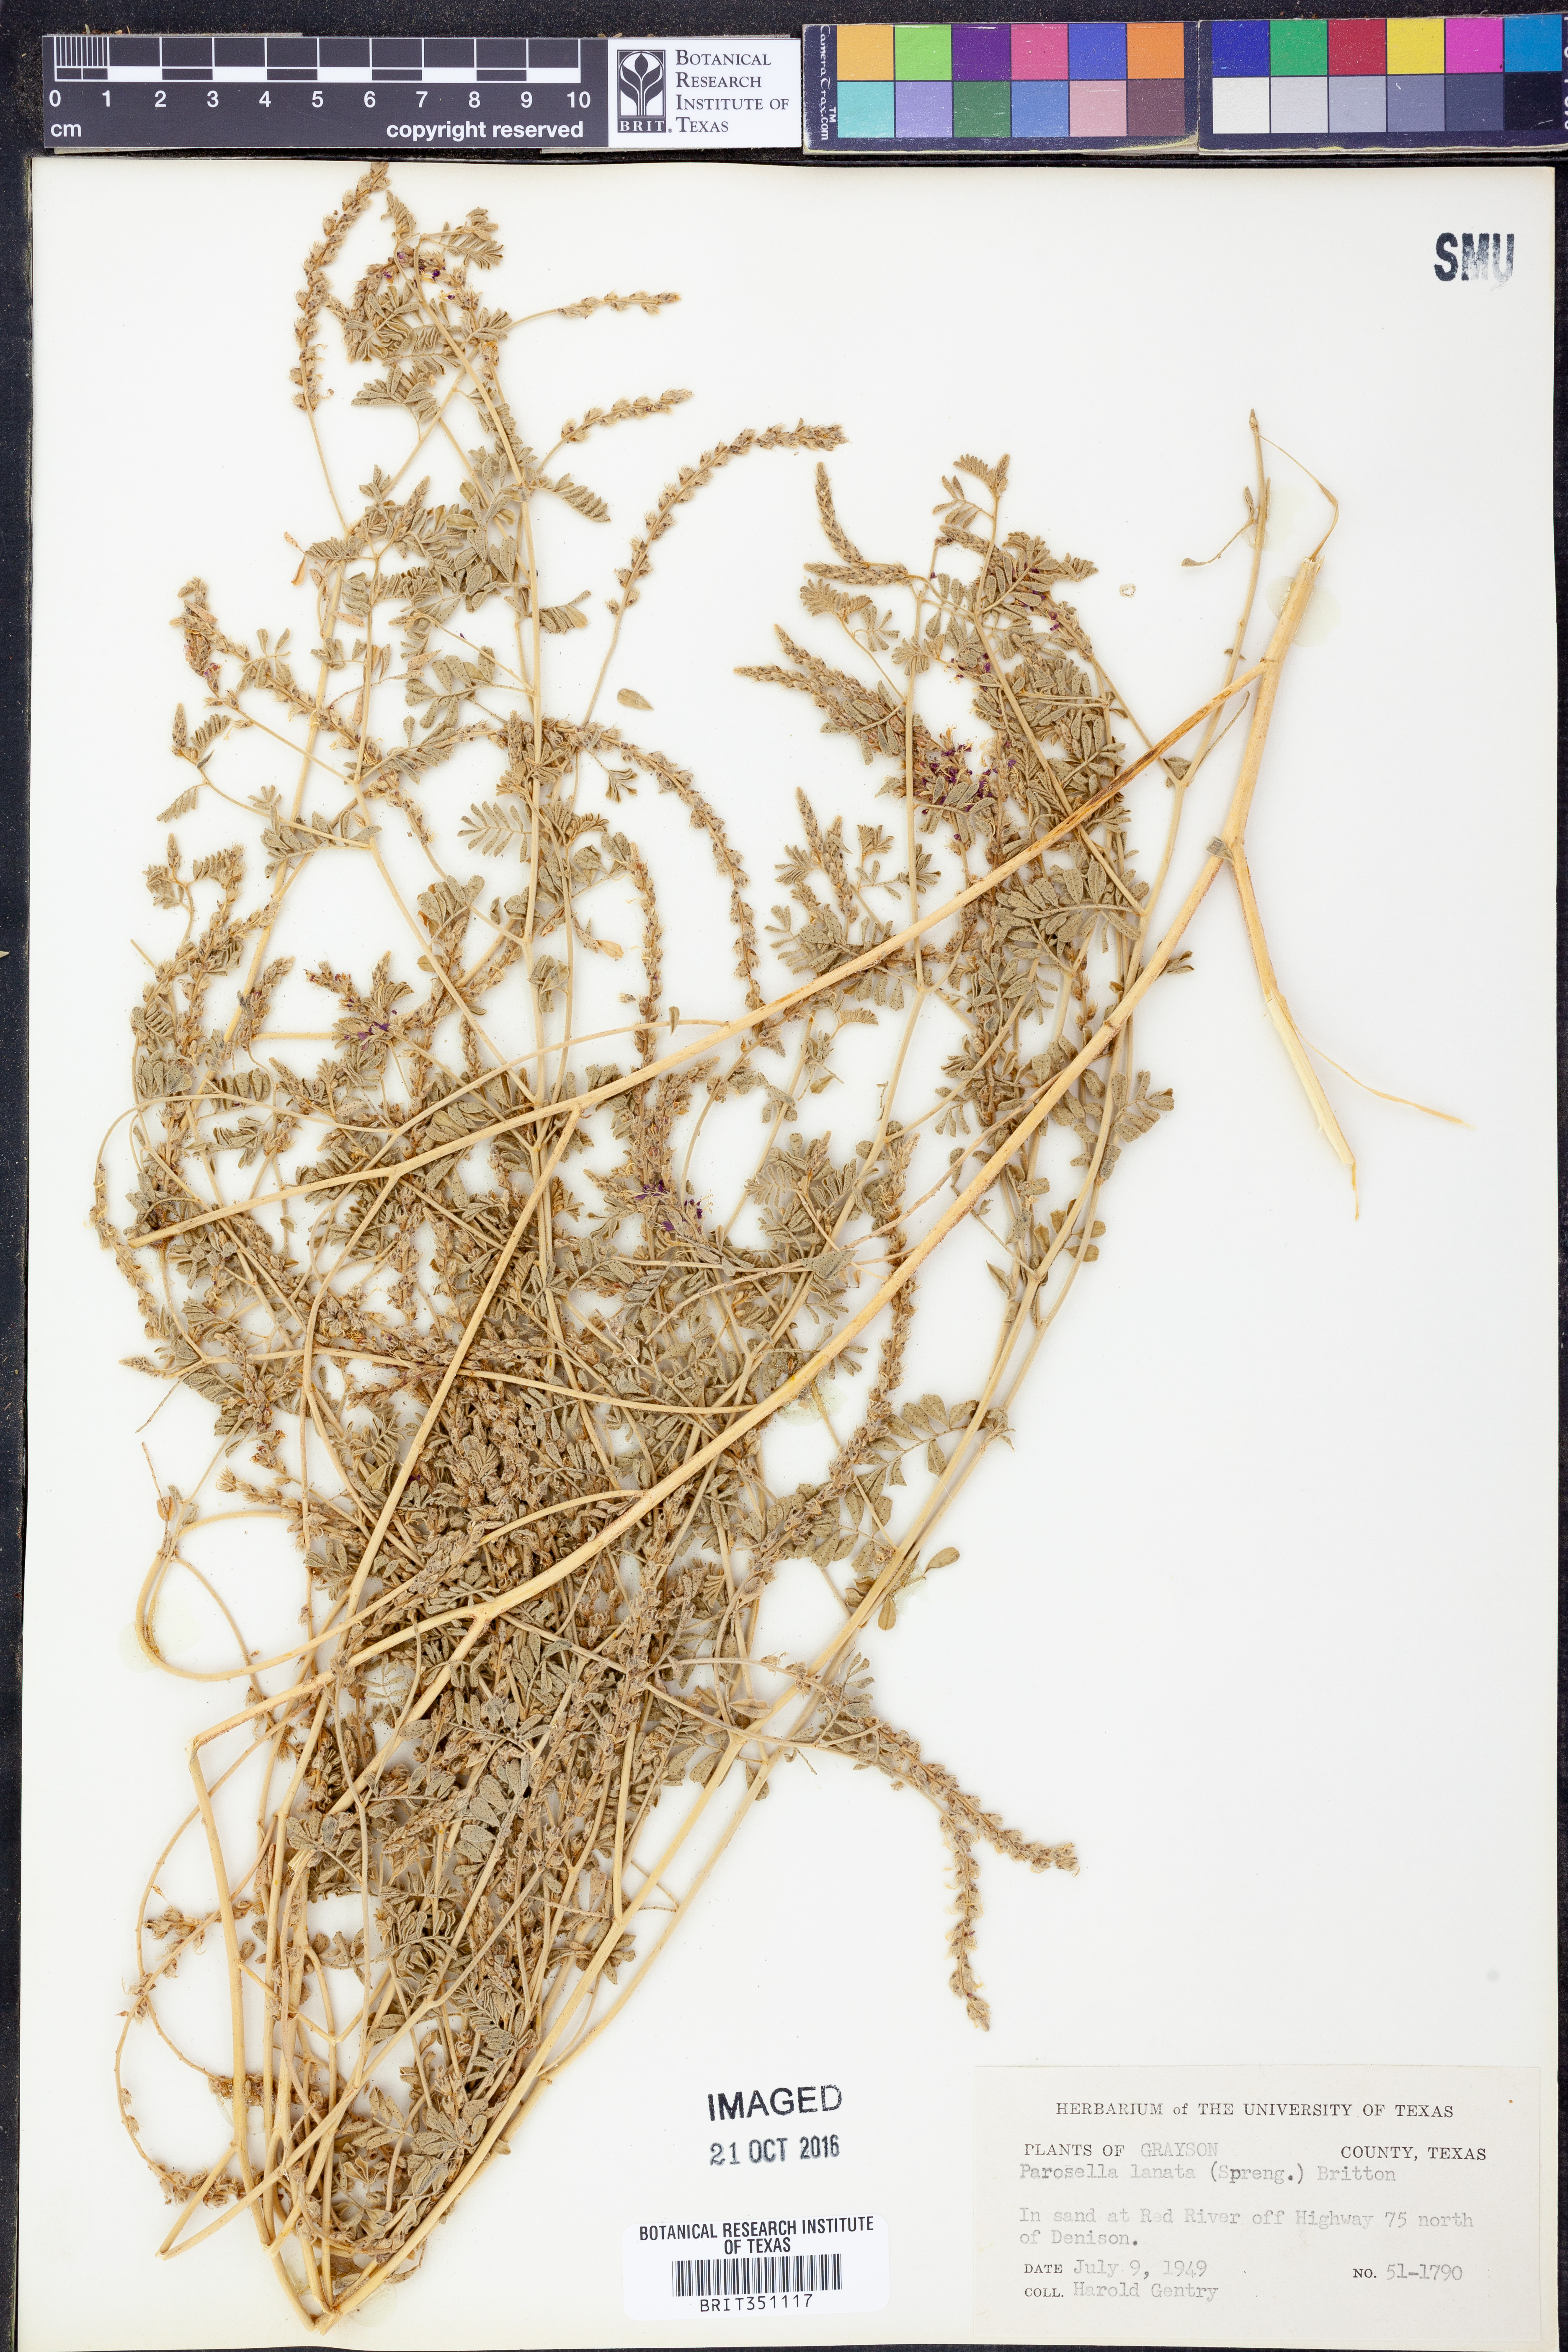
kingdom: Plantae
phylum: Tracheophyta
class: Magnoliopsida
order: Fabales
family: Fabaceae
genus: Dalea
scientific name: Dalea lanata
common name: Woolly dalea
